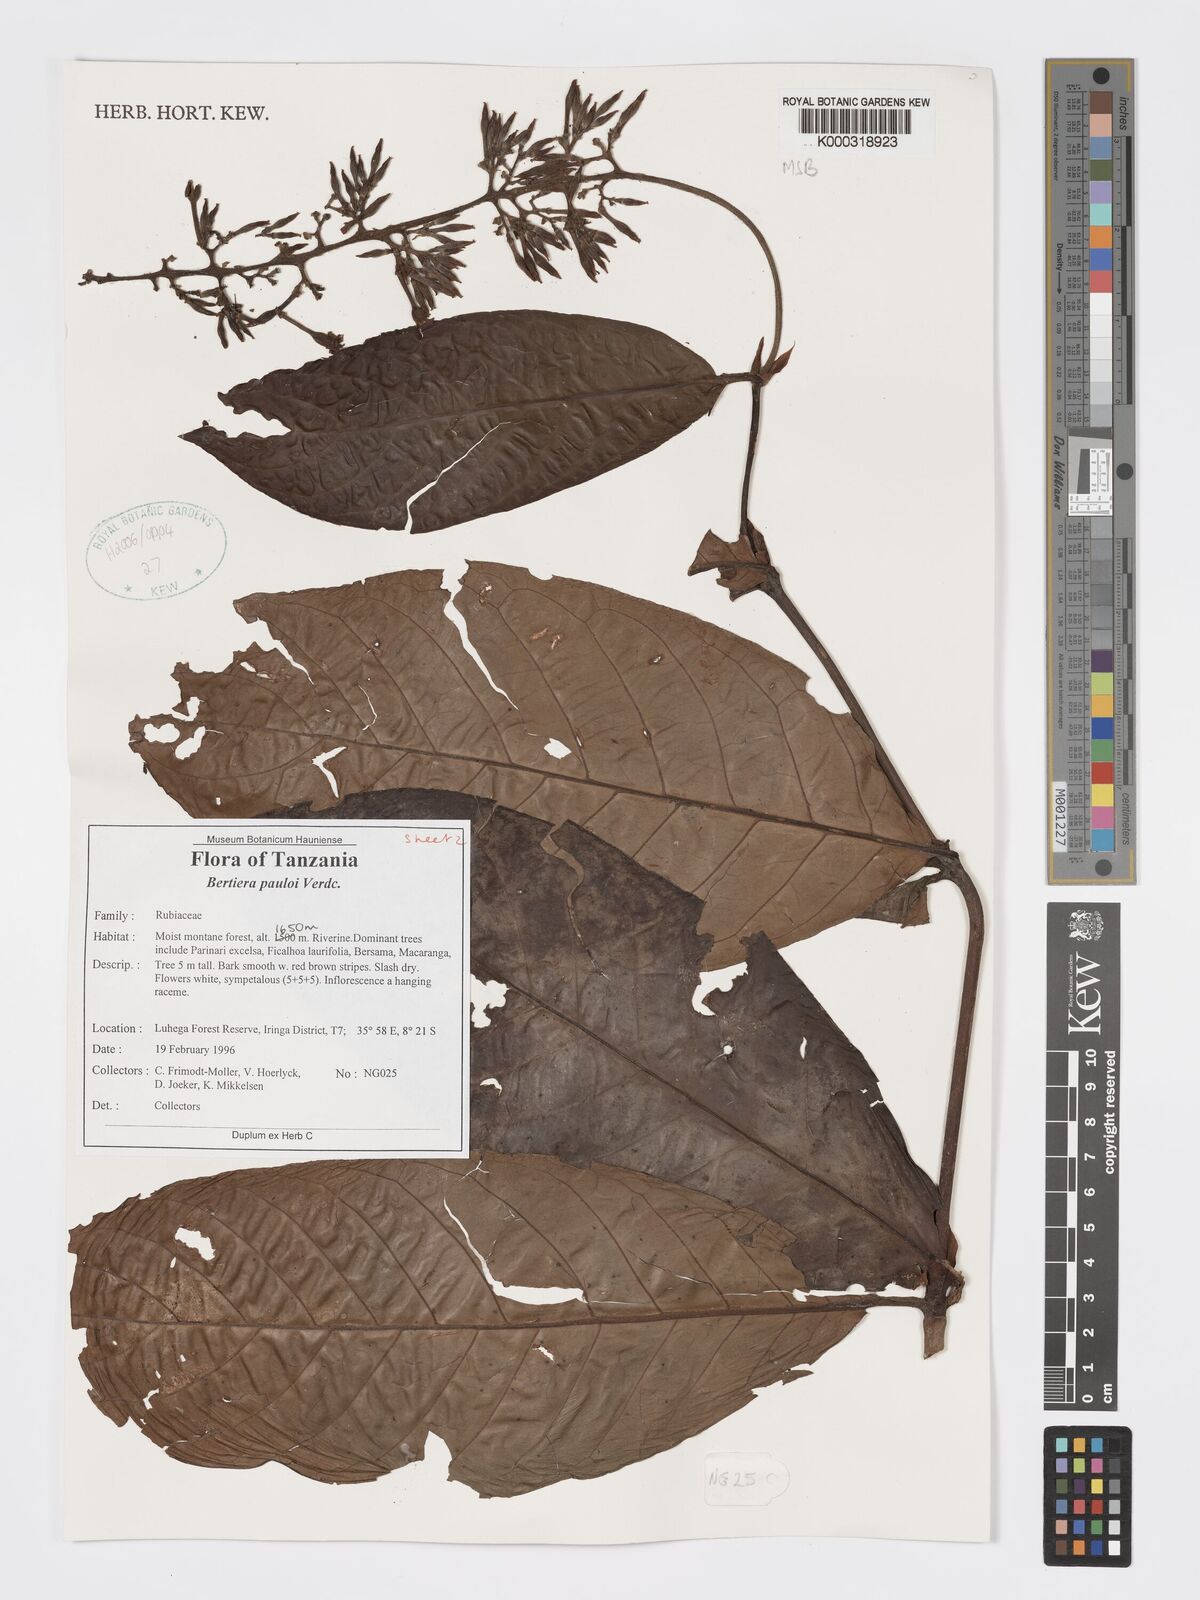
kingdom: Plantae
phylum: Tracheophyta
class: Magnoliopsida
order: Gentianales
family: Rubiaceae
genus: Bertiera
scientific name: Bertiera pauloi
